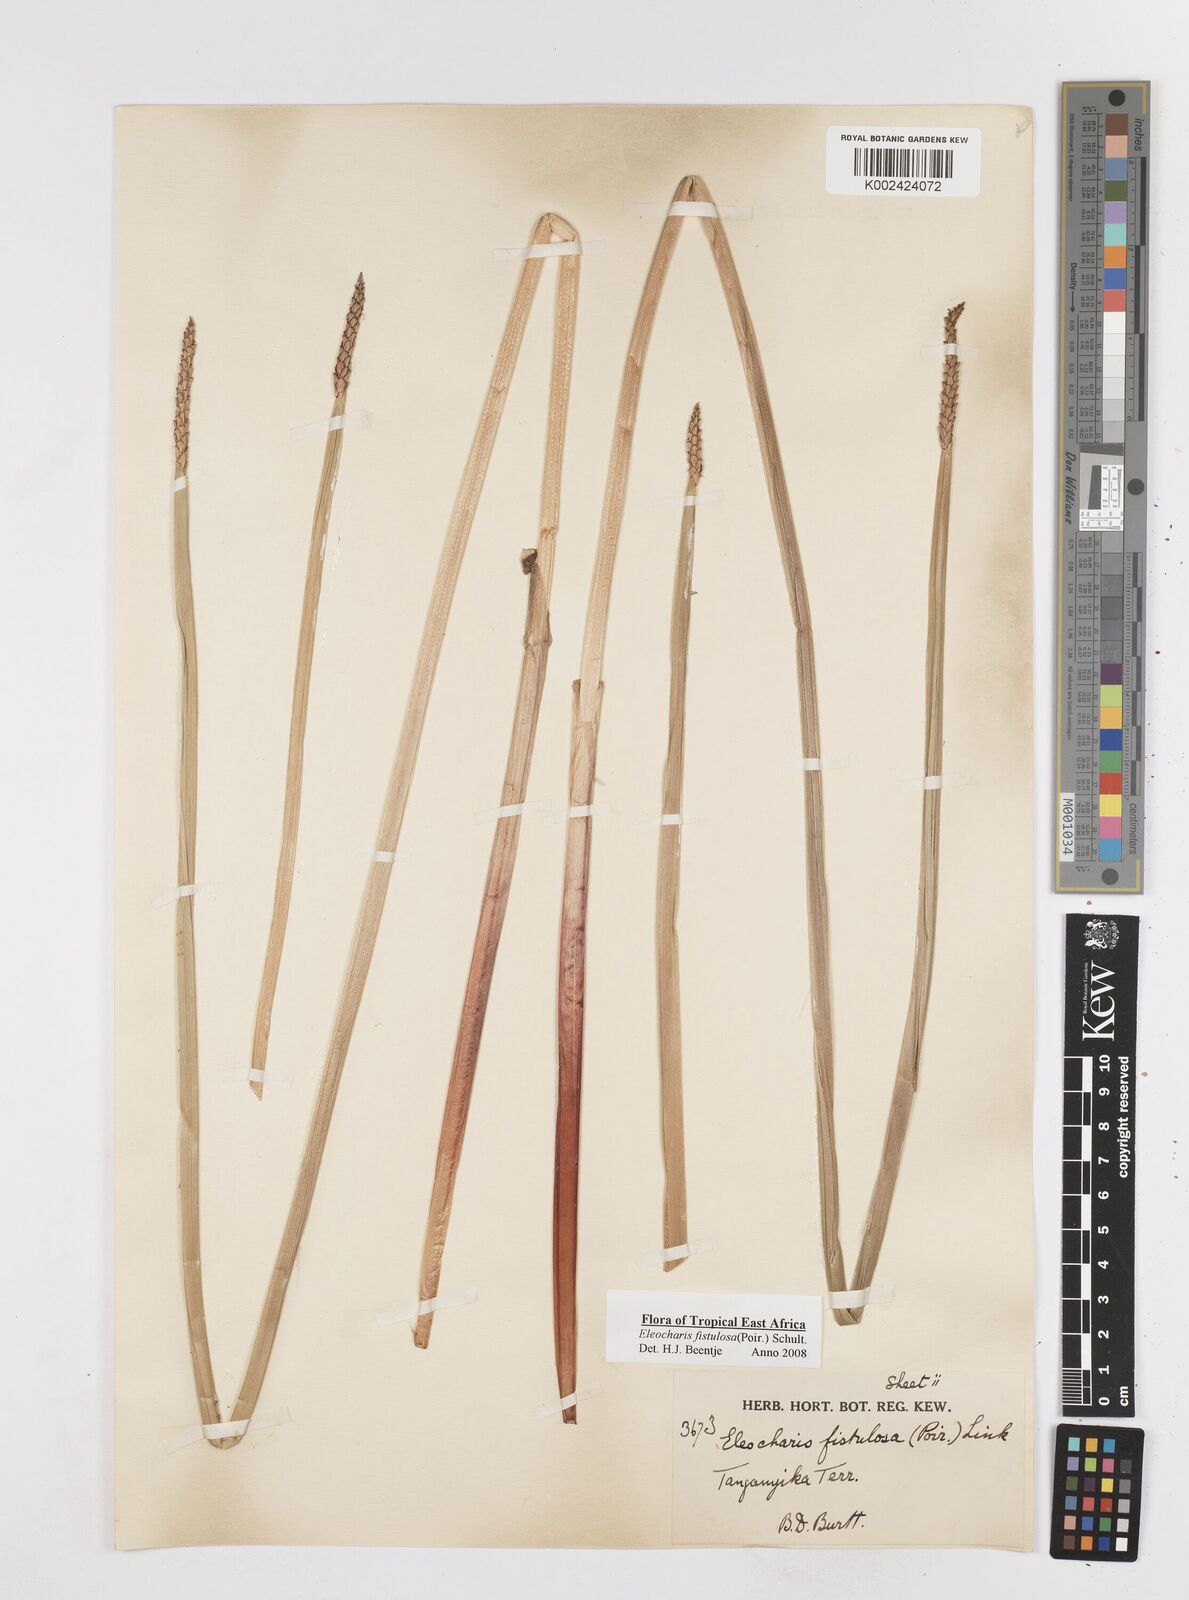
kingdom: Plantae
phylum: Tracheophyta
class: Liliopsida
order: Poales
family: Cyperaceae
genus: Eleocharis
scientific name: Eleocharis acutangula
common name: Acute spikerush
